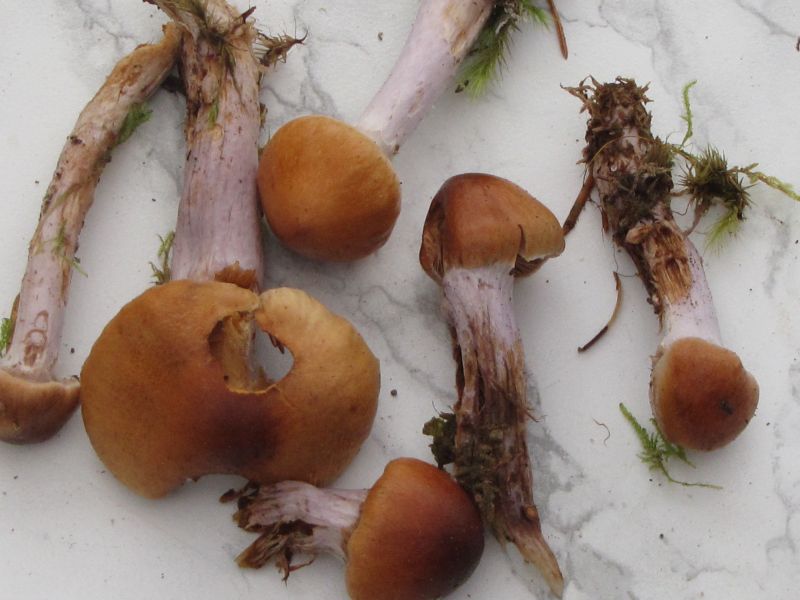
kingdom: Fungi
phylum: Basidiomycota
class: Agaricomycetes
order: Agaricales
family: Cortinariaceae
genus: Cortinarius
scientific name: Cortinarius collinitus
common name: spættet slørhat
